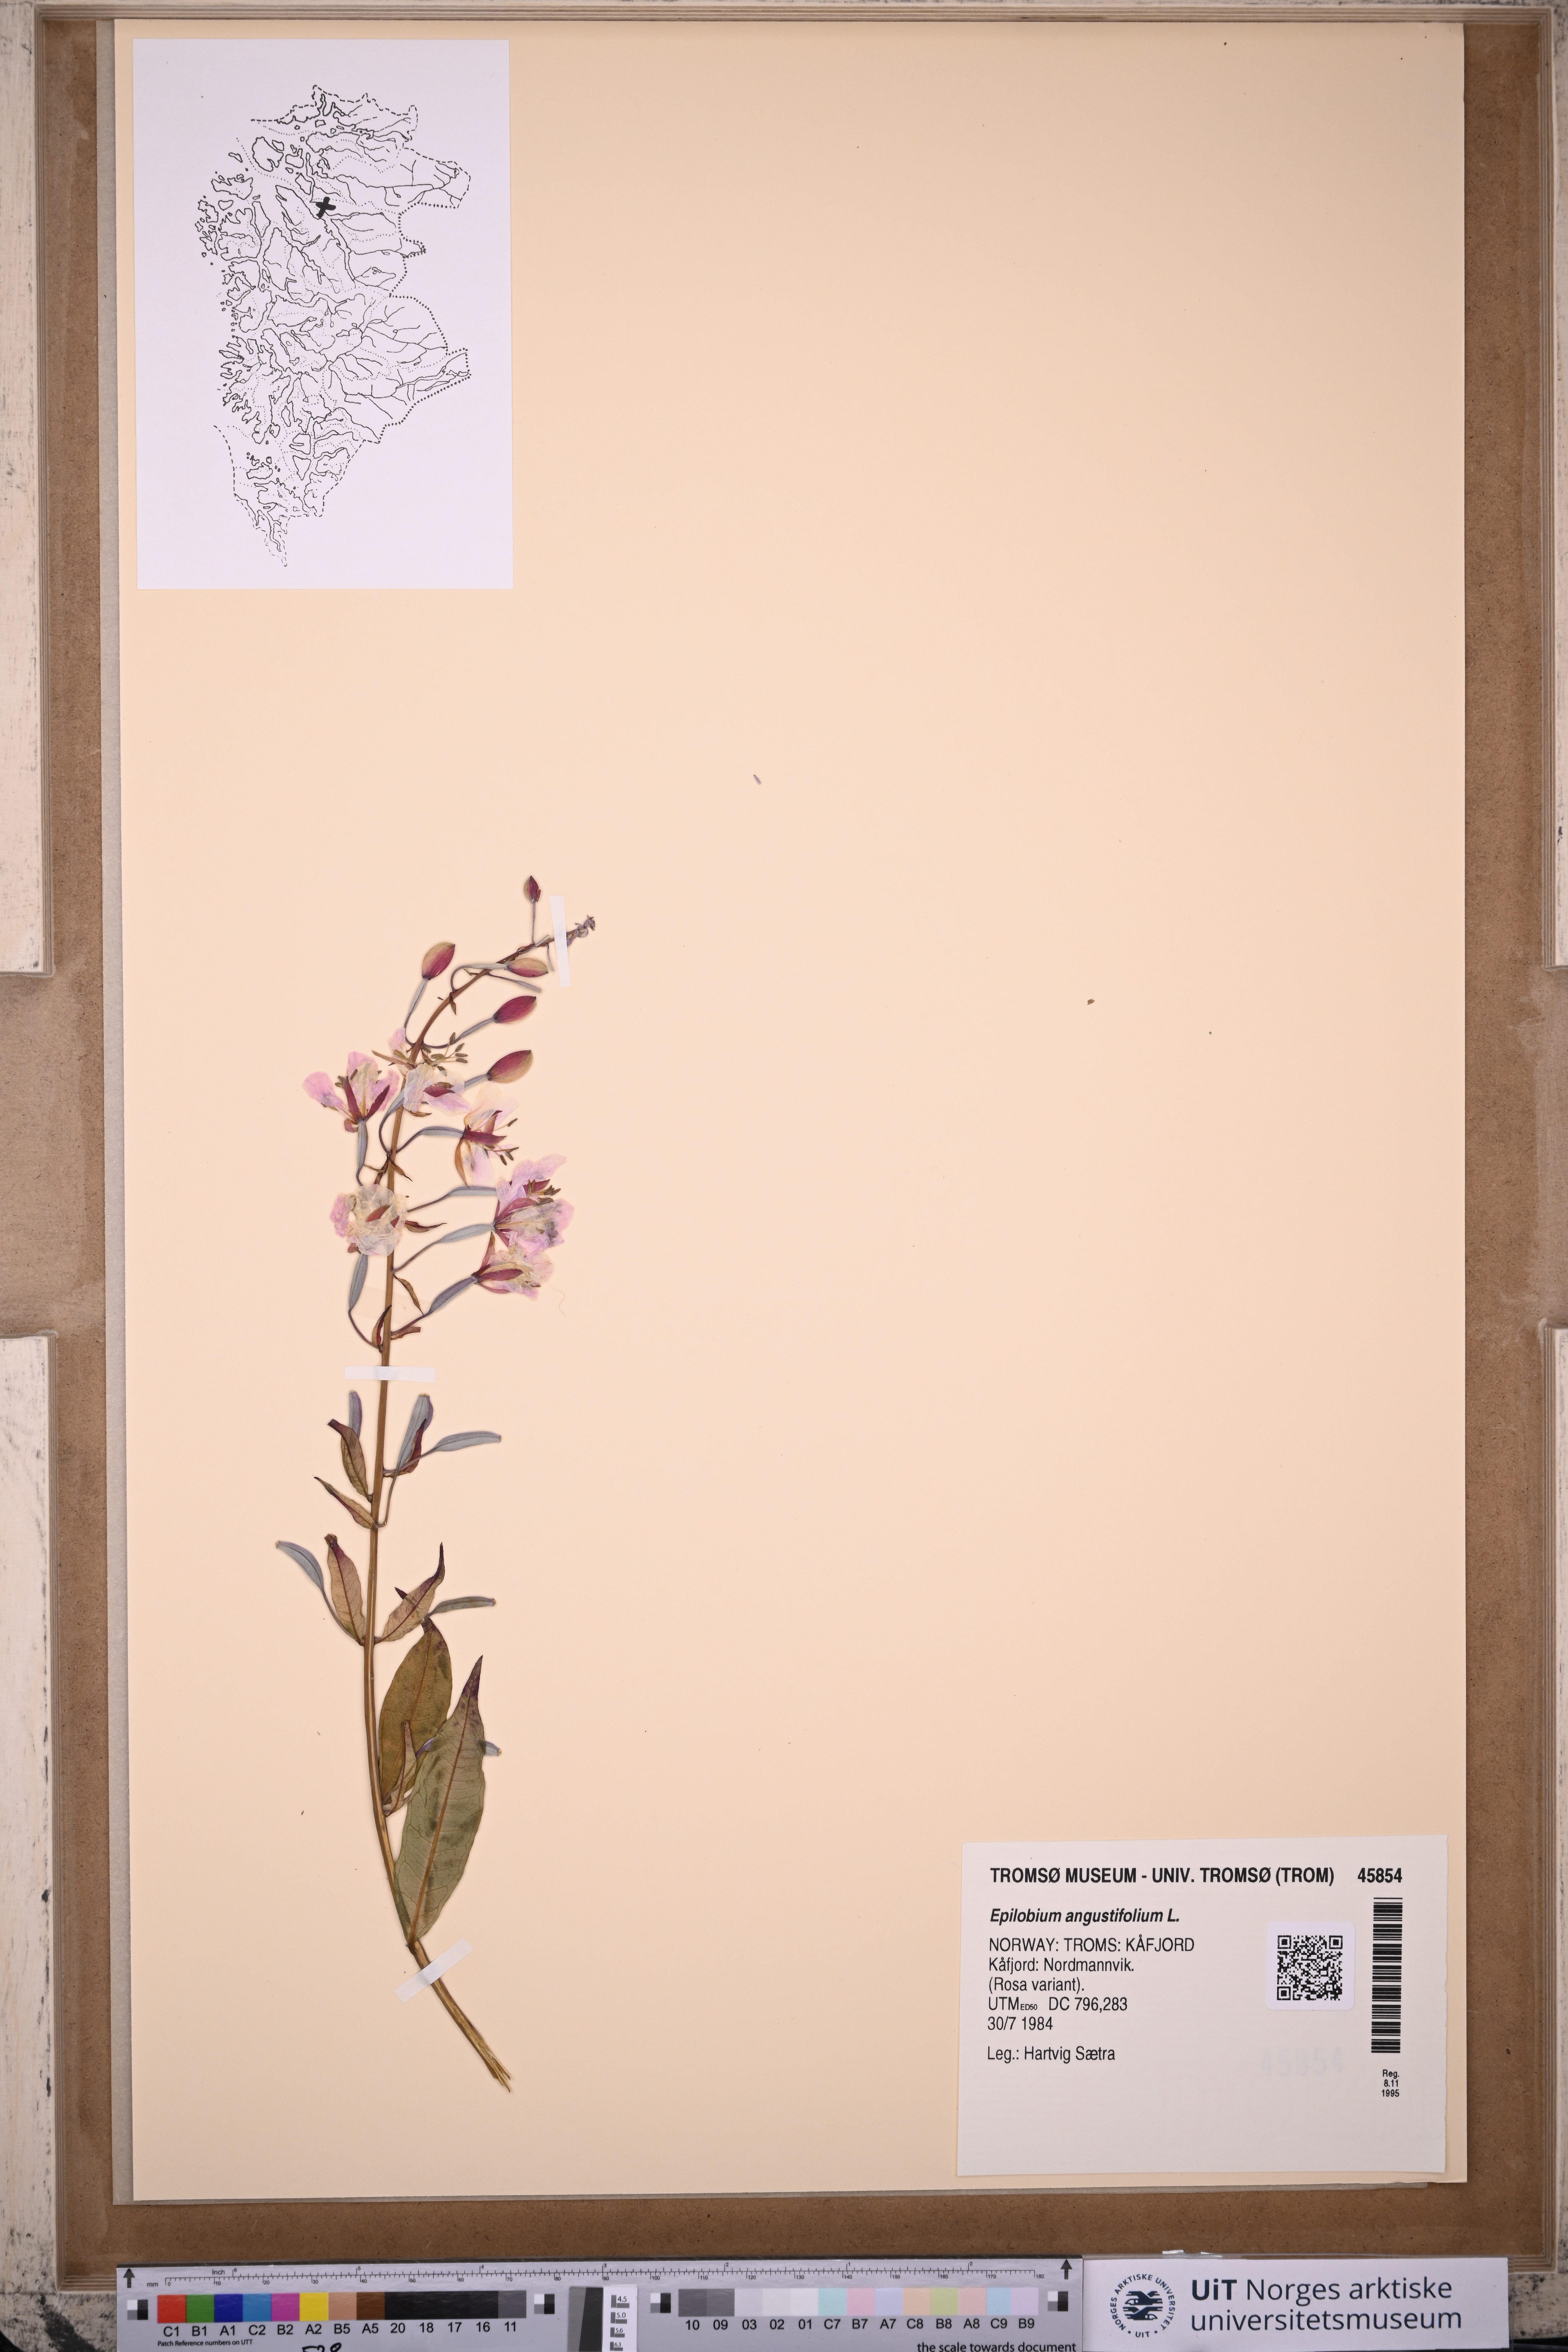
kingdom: Plantae
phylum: Tracheophyta
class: Magnoliopsida
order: Myrtales
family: Onagraceae
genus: Chamaenerion
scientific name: Chamaenerion angustifolium
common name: Fireweed
